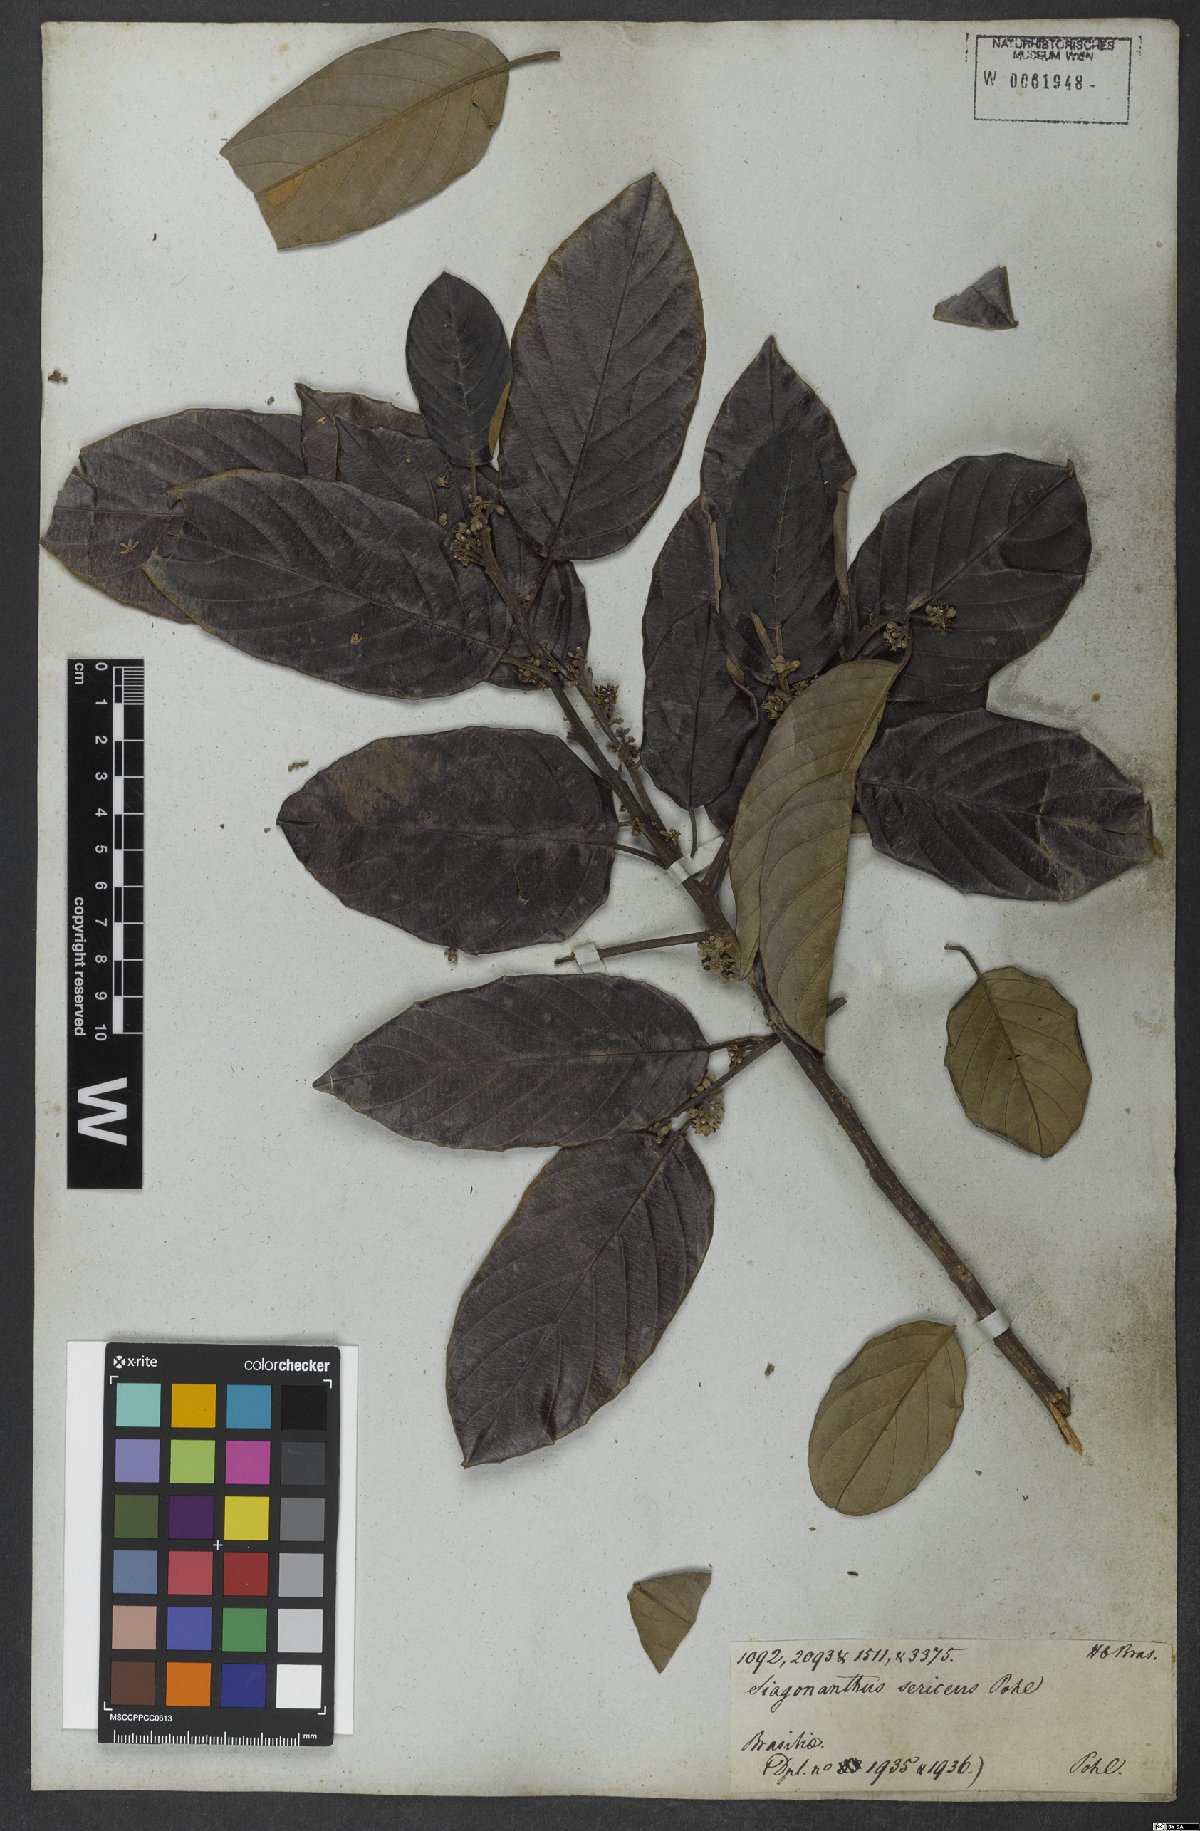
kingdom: Plantae
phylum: Tracheophyta
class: Magnoliopsida
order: Metteniusales
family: Metteniusaceae
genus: Emmotum
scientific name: Emmotum nitens
